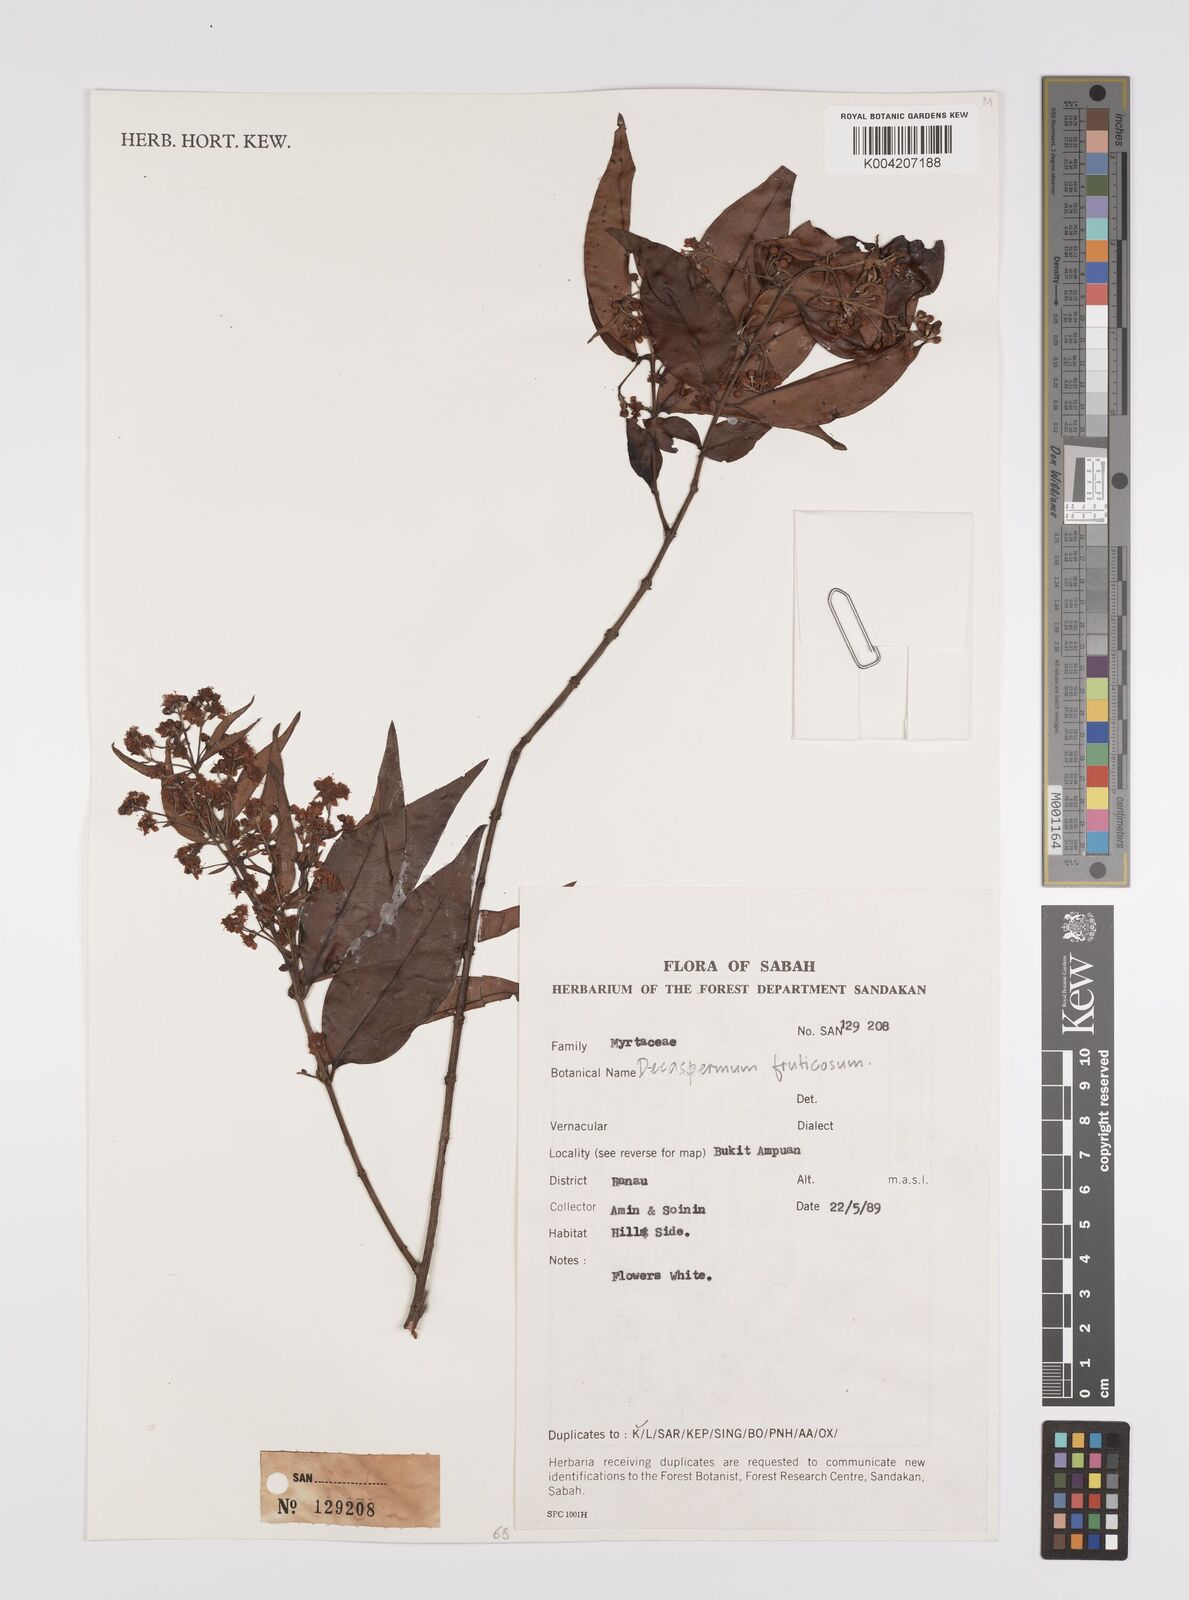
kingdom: Plantae
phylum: Tracheophyta
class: Magnoliopsida
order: Myrtales
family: Myrtaceae
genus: Decaspermum
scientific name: Decaspermum parviflorum
